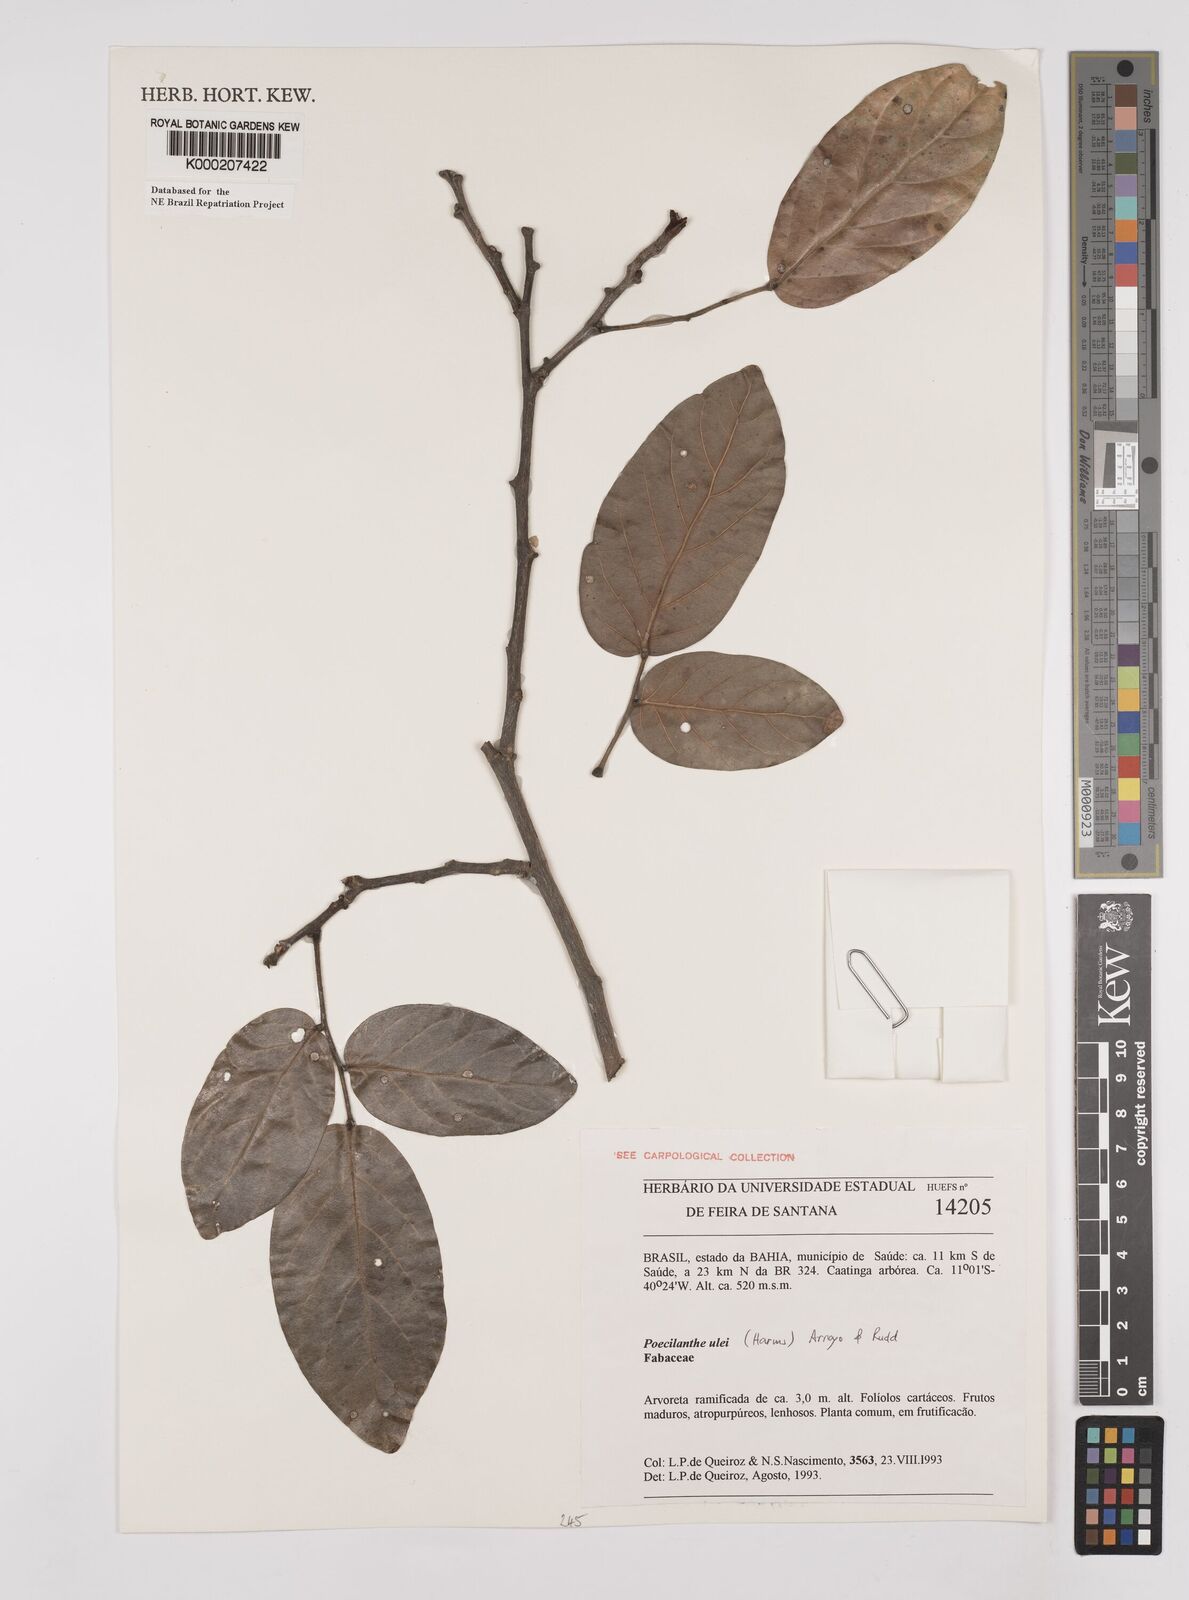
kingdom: Plantae
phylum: Tracheophyta
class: Magnoliopsida
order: Fabales
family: Fabaceae
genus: Poecilanthe
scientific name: Poecilanthe ulei
